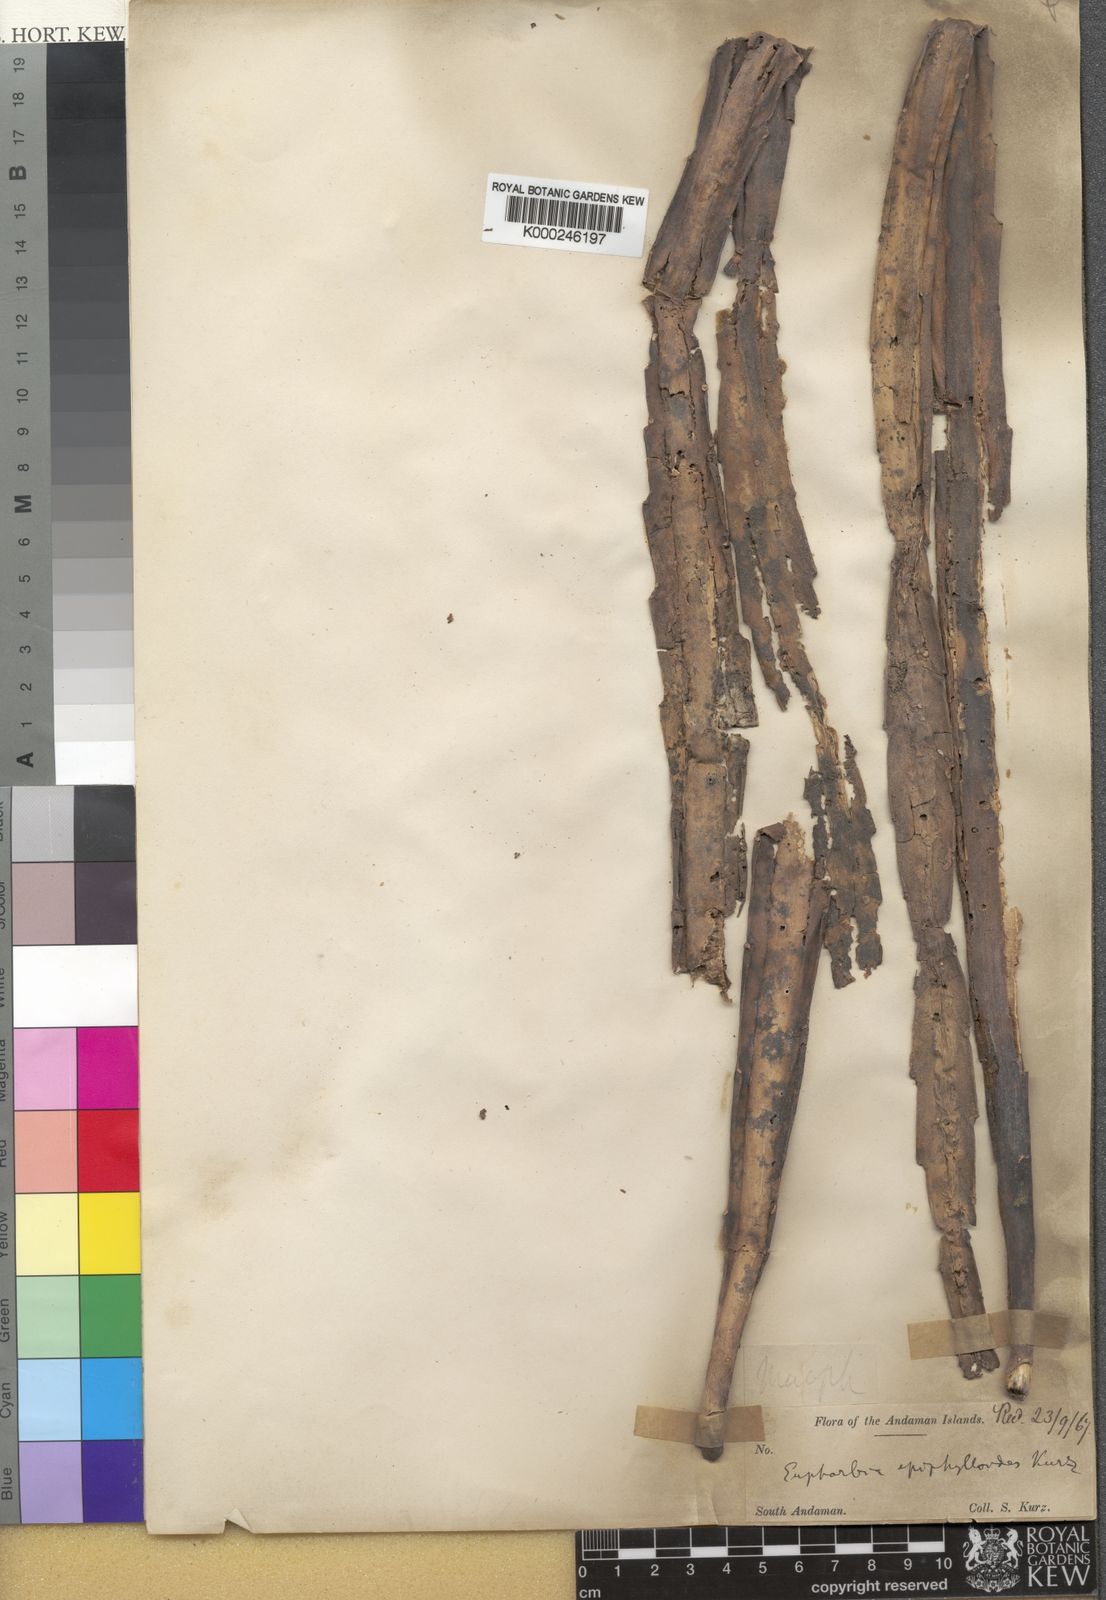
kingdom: Plantae
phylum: Tracheophyta
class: Magnoliopsida
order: Malpighiales
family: Euphorbiaceae
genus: Euphorbia
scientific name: Euphorbia epiphylloides
